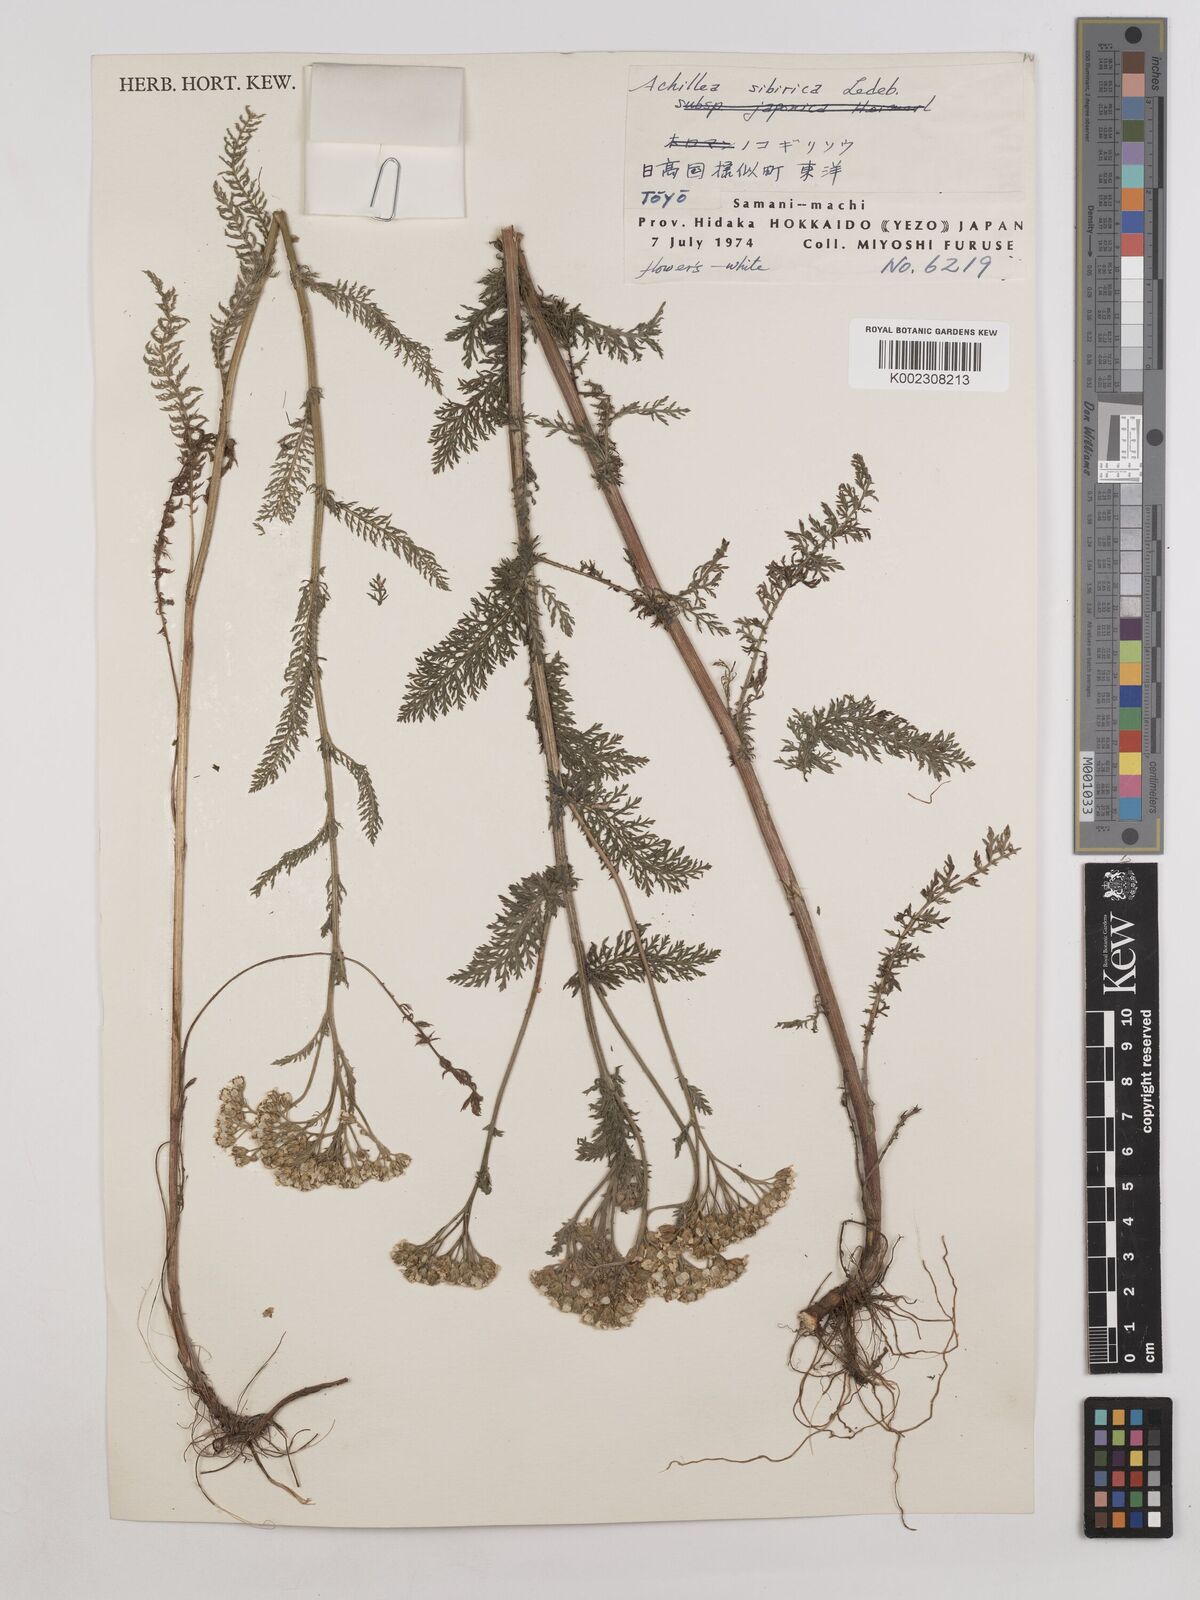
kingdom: Plantae
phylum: Tracheophyta
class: Magnoliopsida
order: Asterales
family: Asteraceae
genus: Achillea
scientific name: Achillea alpina
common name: Siberian yarrow
